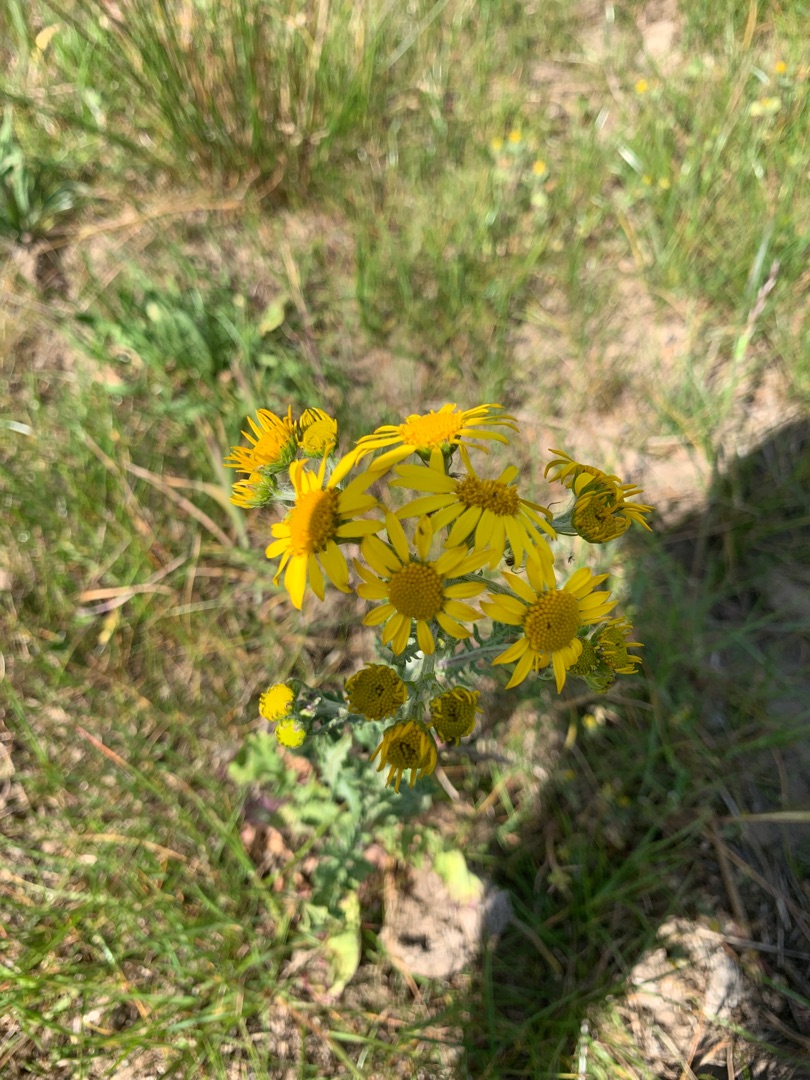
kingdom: Plantae
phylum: Tracheophyta
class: Magnoliopsida
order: Asterales
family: Asteraceae
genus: Jacobaea
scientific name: Jacobaea vulgaris
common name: Eng-brandbæger
